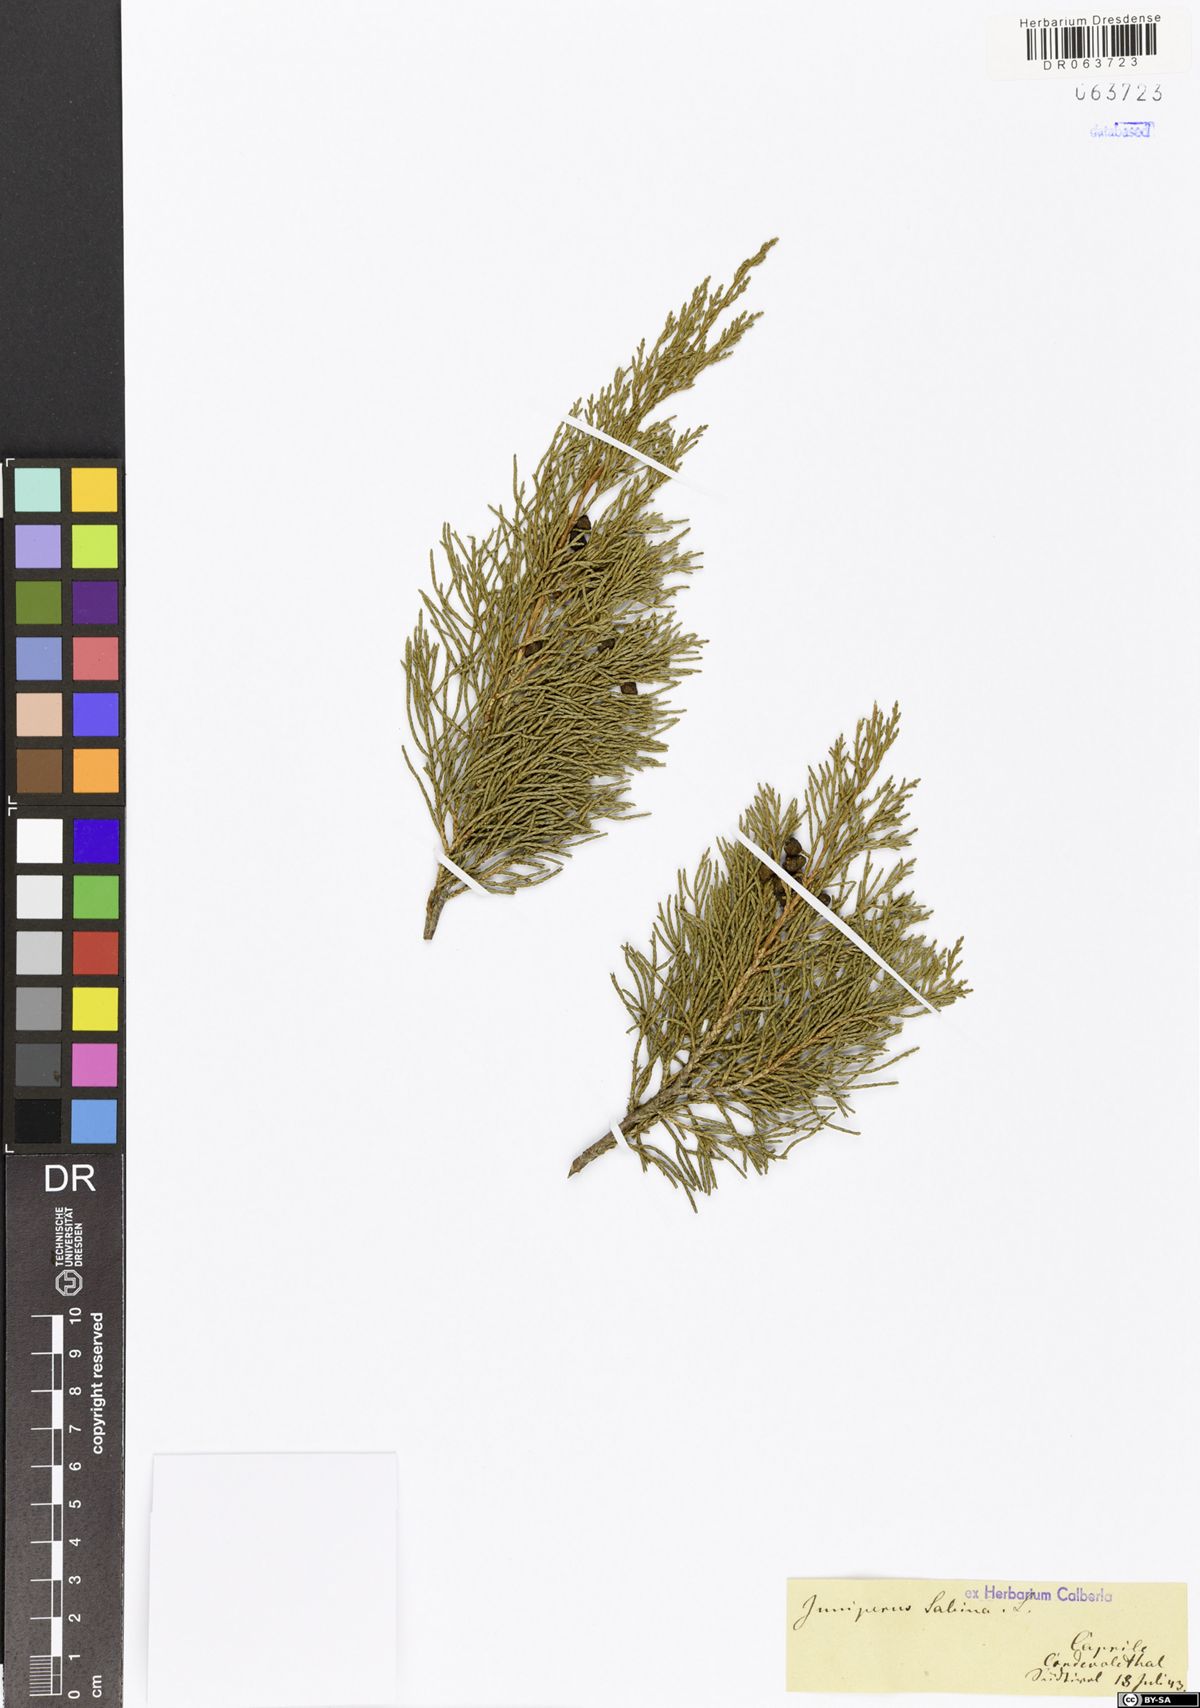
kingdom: Plantae
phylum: Tracheophyta
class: Pinopsida
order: Pinales
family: Cupressaceae
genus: Juniperus
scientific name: Juniperus sabina
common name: Savin
